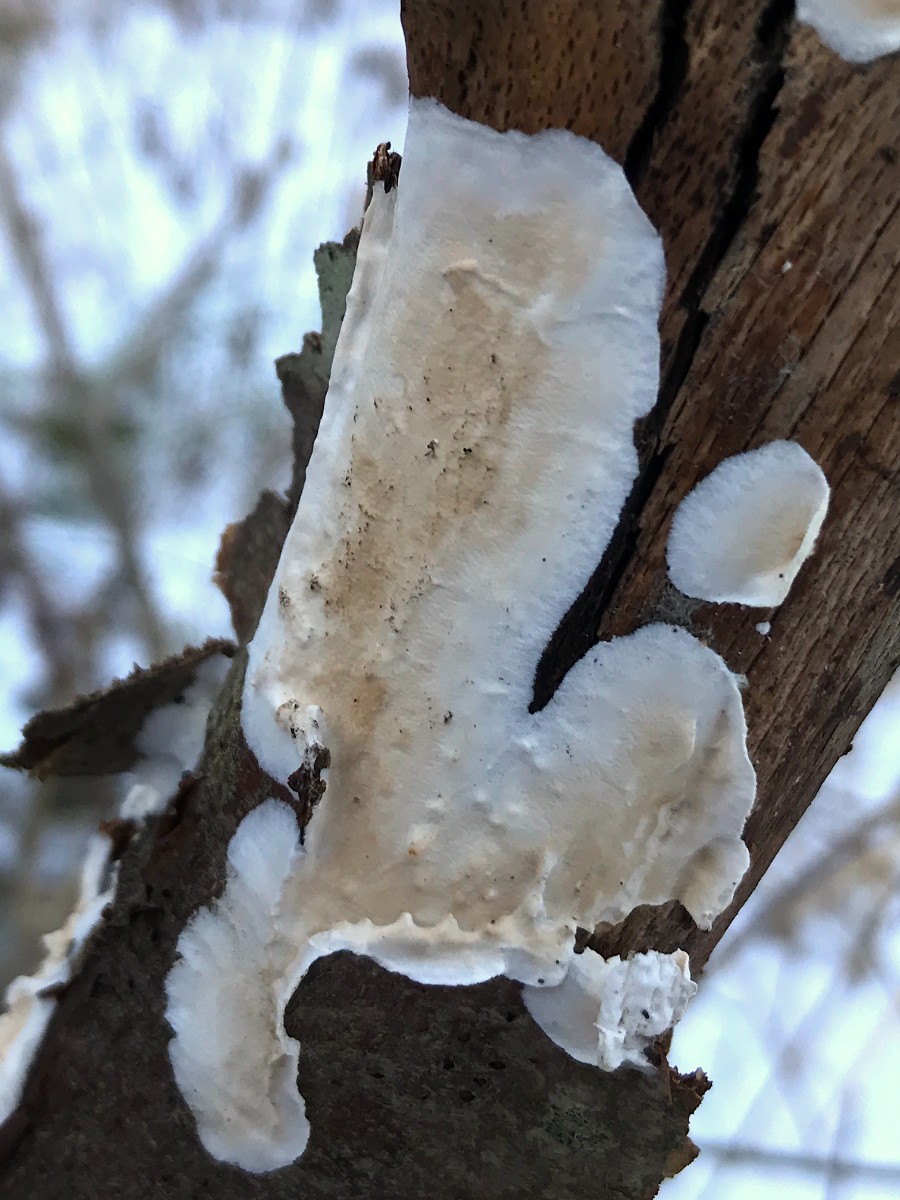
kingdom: Fungi
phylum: Basidiomycota
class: Agaricomycetes
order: Polyporales
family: Irpicaceae
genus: Byssomerulius
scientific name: Byssomerulius corium
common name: læder-åresvamp
